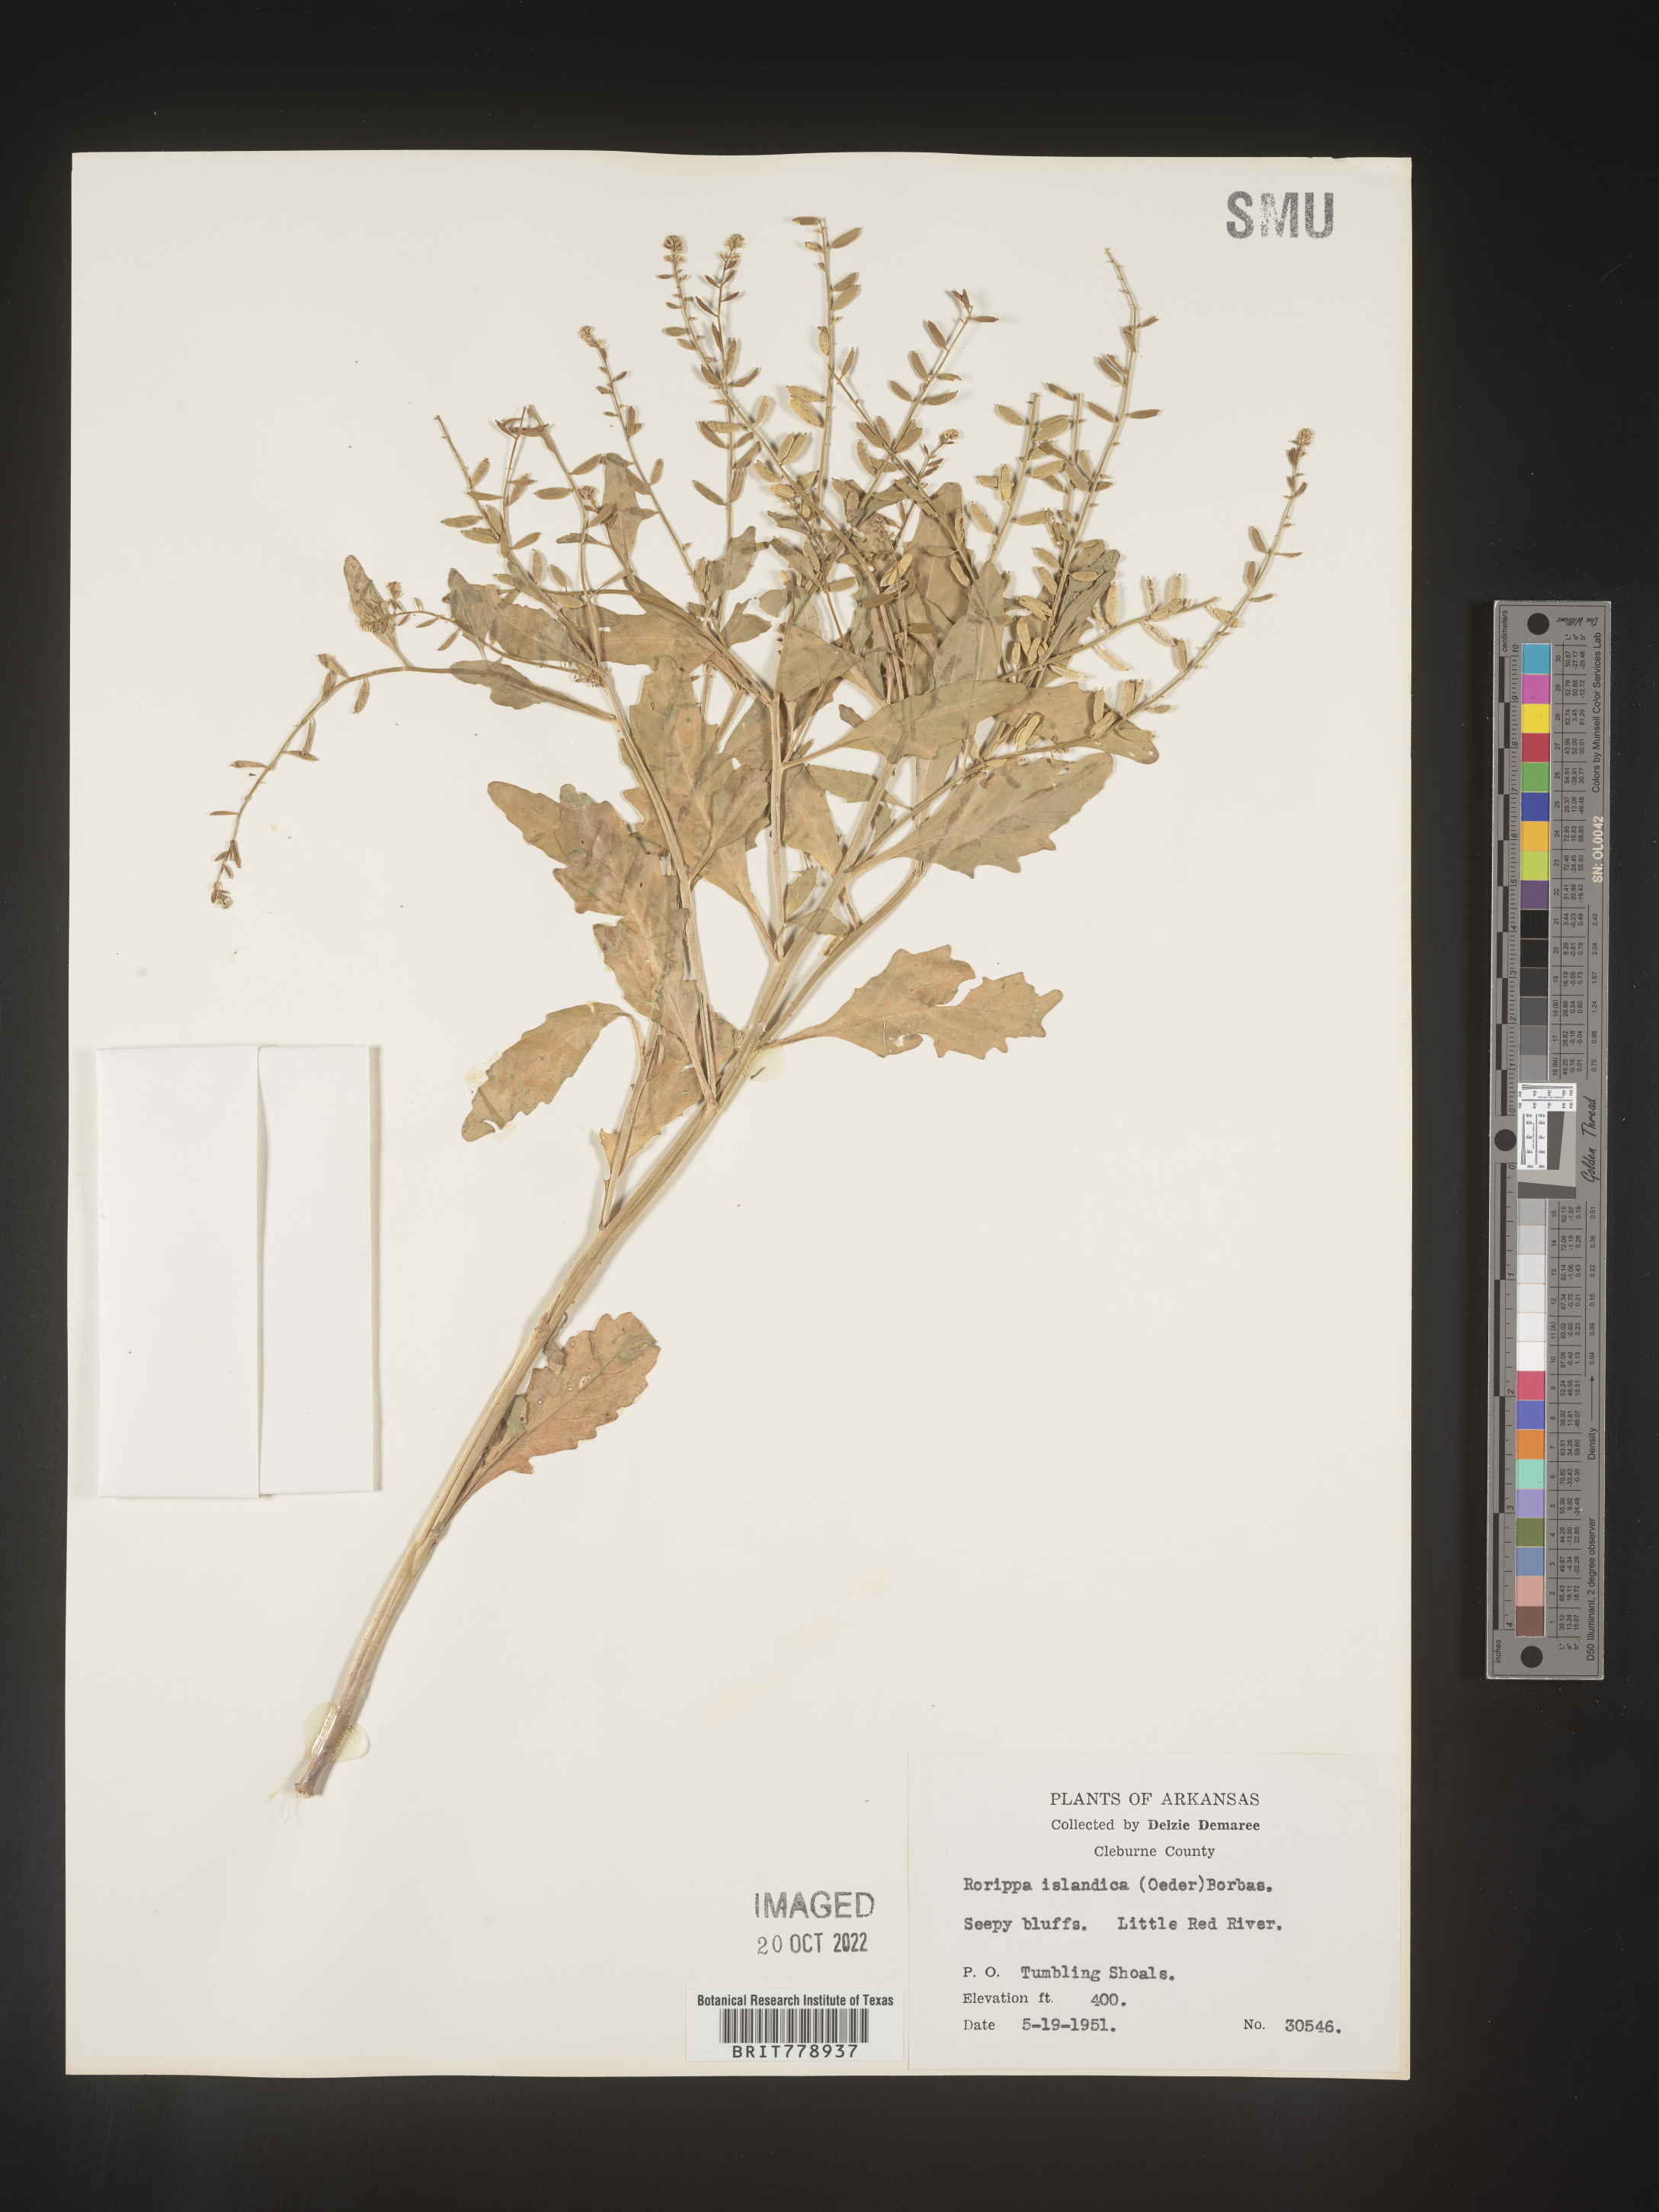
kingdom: Plantae
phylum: Tracheophyta
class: Magnoliopsida
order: Brassicales
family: Brassicaceae
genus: Rorippa
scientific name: Rorippa palustris
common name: Marsh yellow-cress
